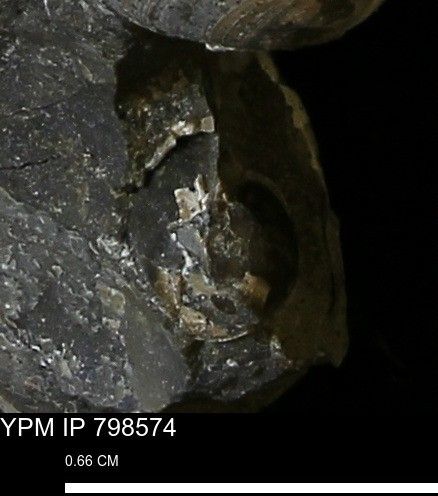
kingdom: Animalia
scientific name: Animalia
